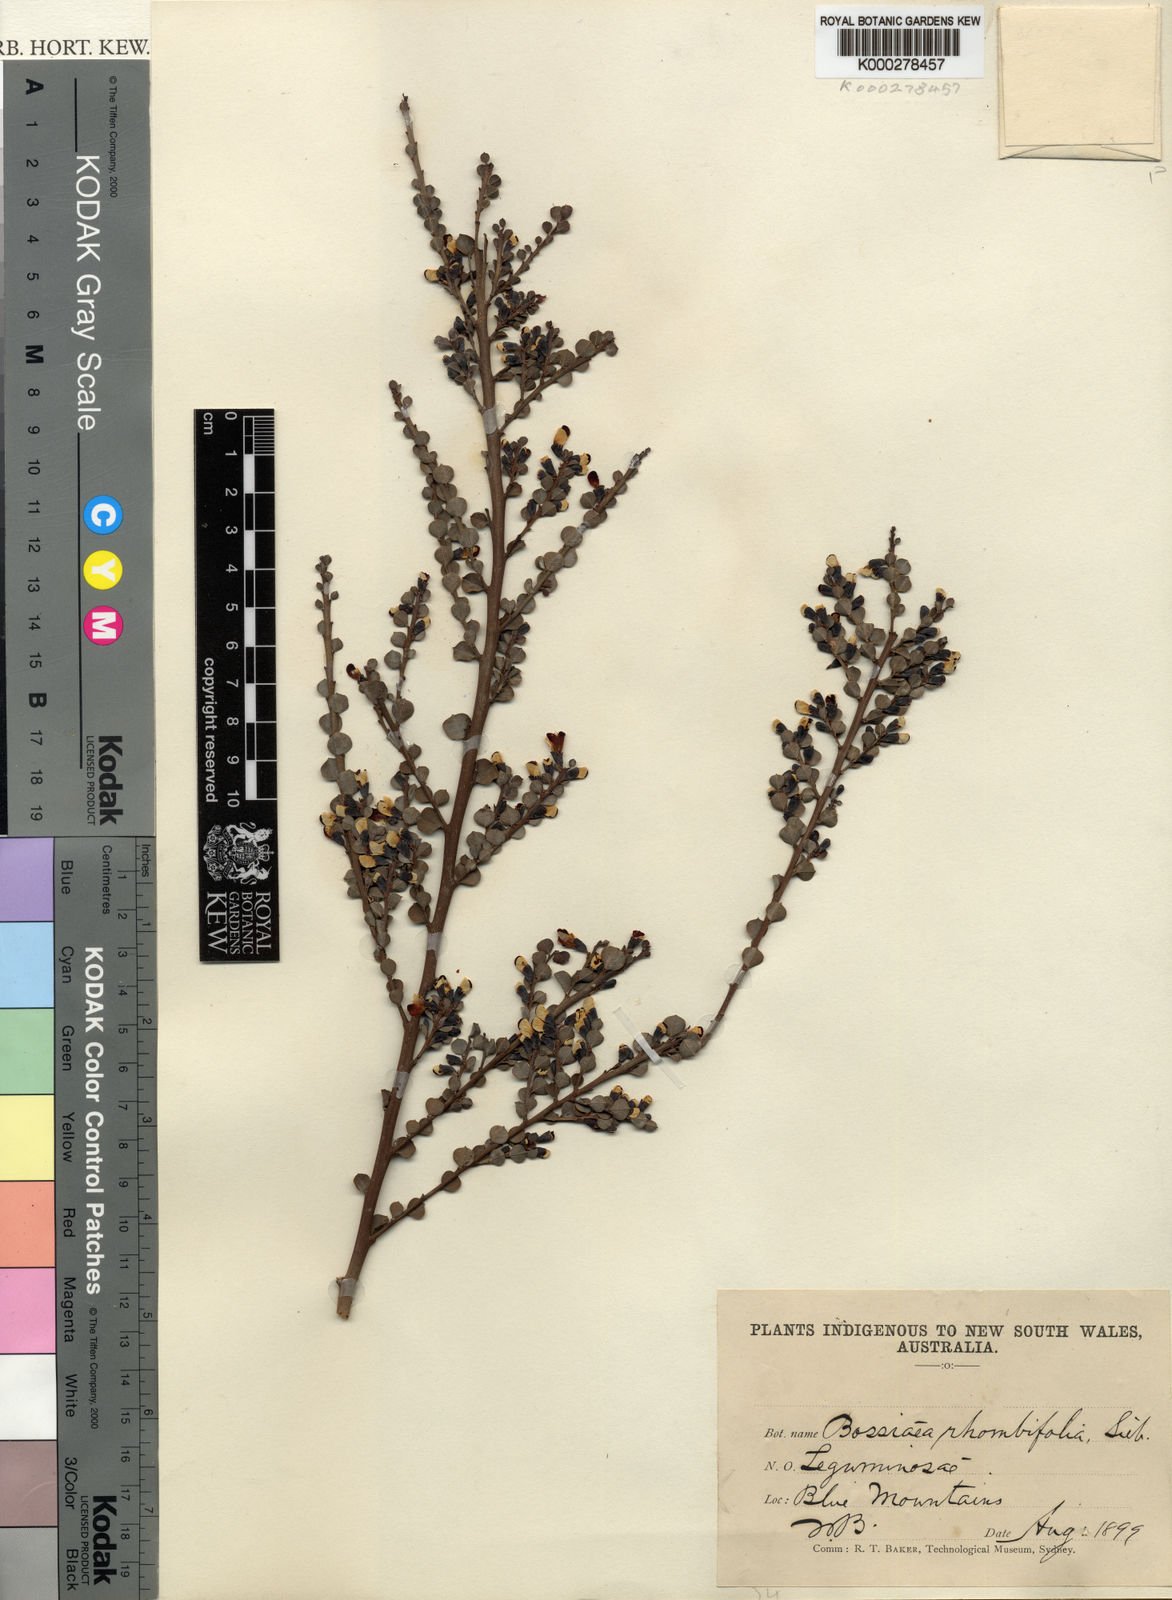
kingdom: Plantae
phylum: Tracheophyta
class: Magnoliopsida
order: Fabales
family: Fabaceae
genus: Bossiaea
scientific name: Bossiaea rhombifolia
